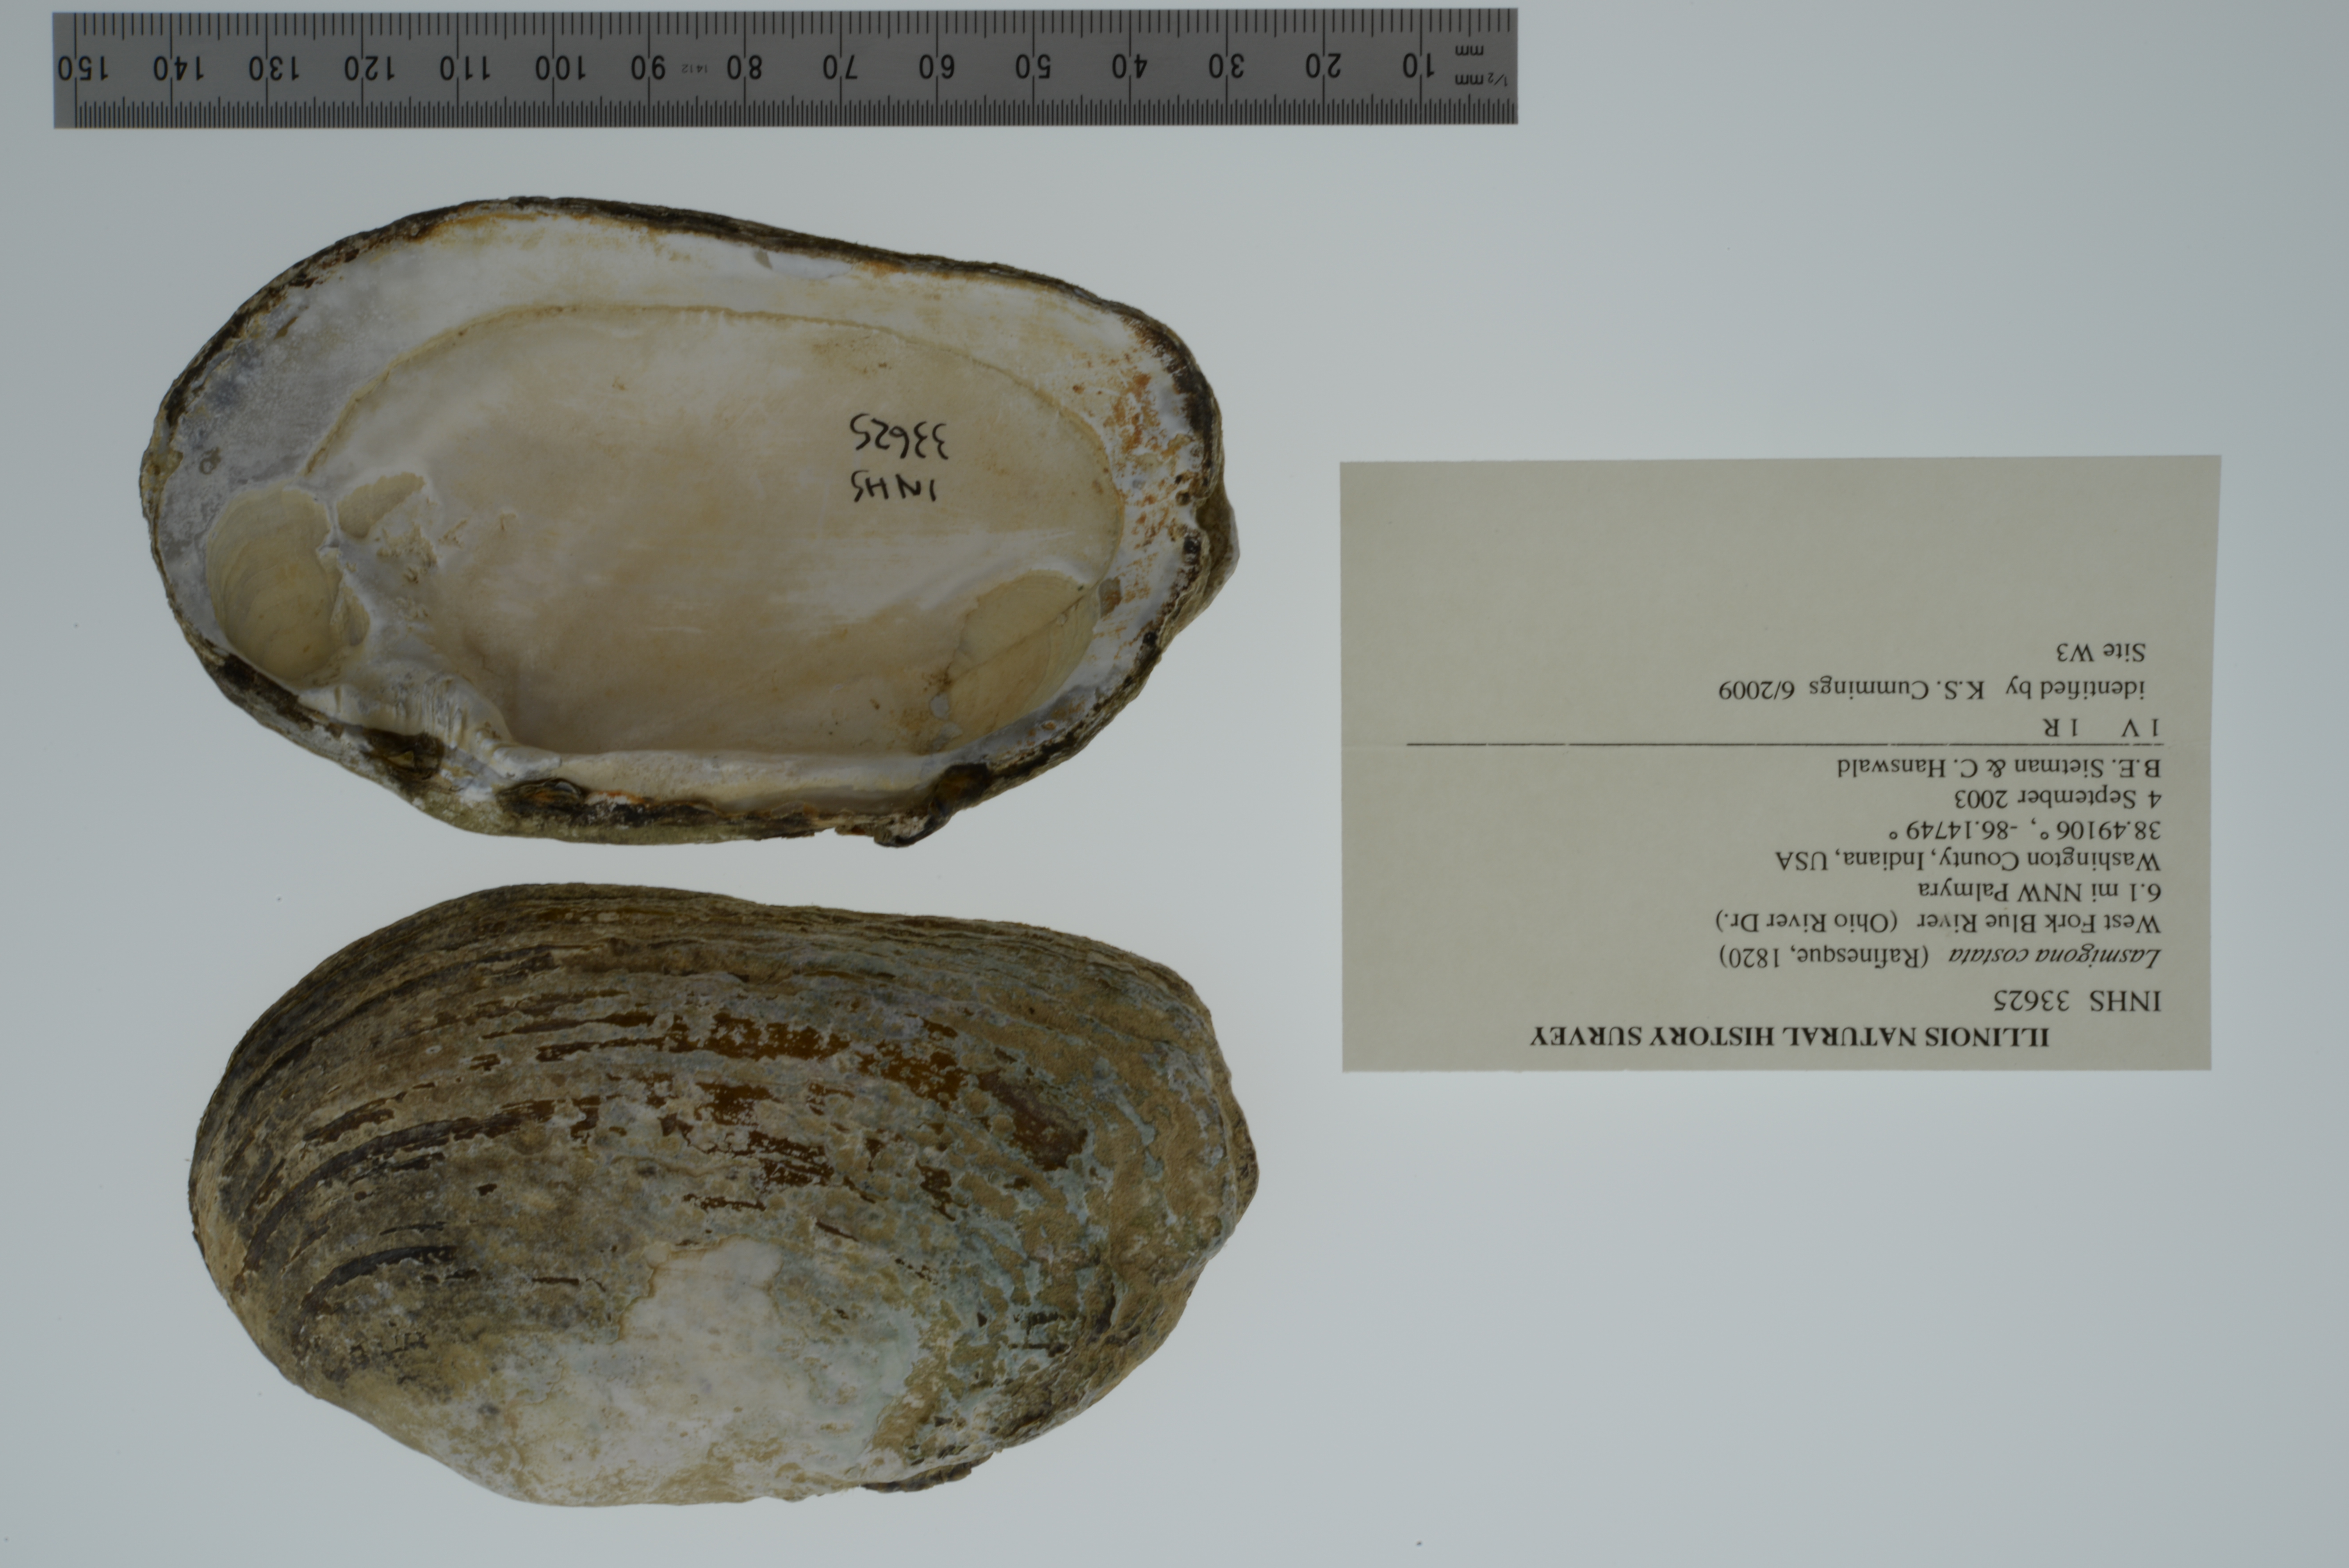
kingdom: Animalia
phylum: Mollusca
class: Bivalvia
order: Unionida
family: Unionidae
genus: Lasmigona
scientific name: Lasmigona costata
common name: Flutedshell
